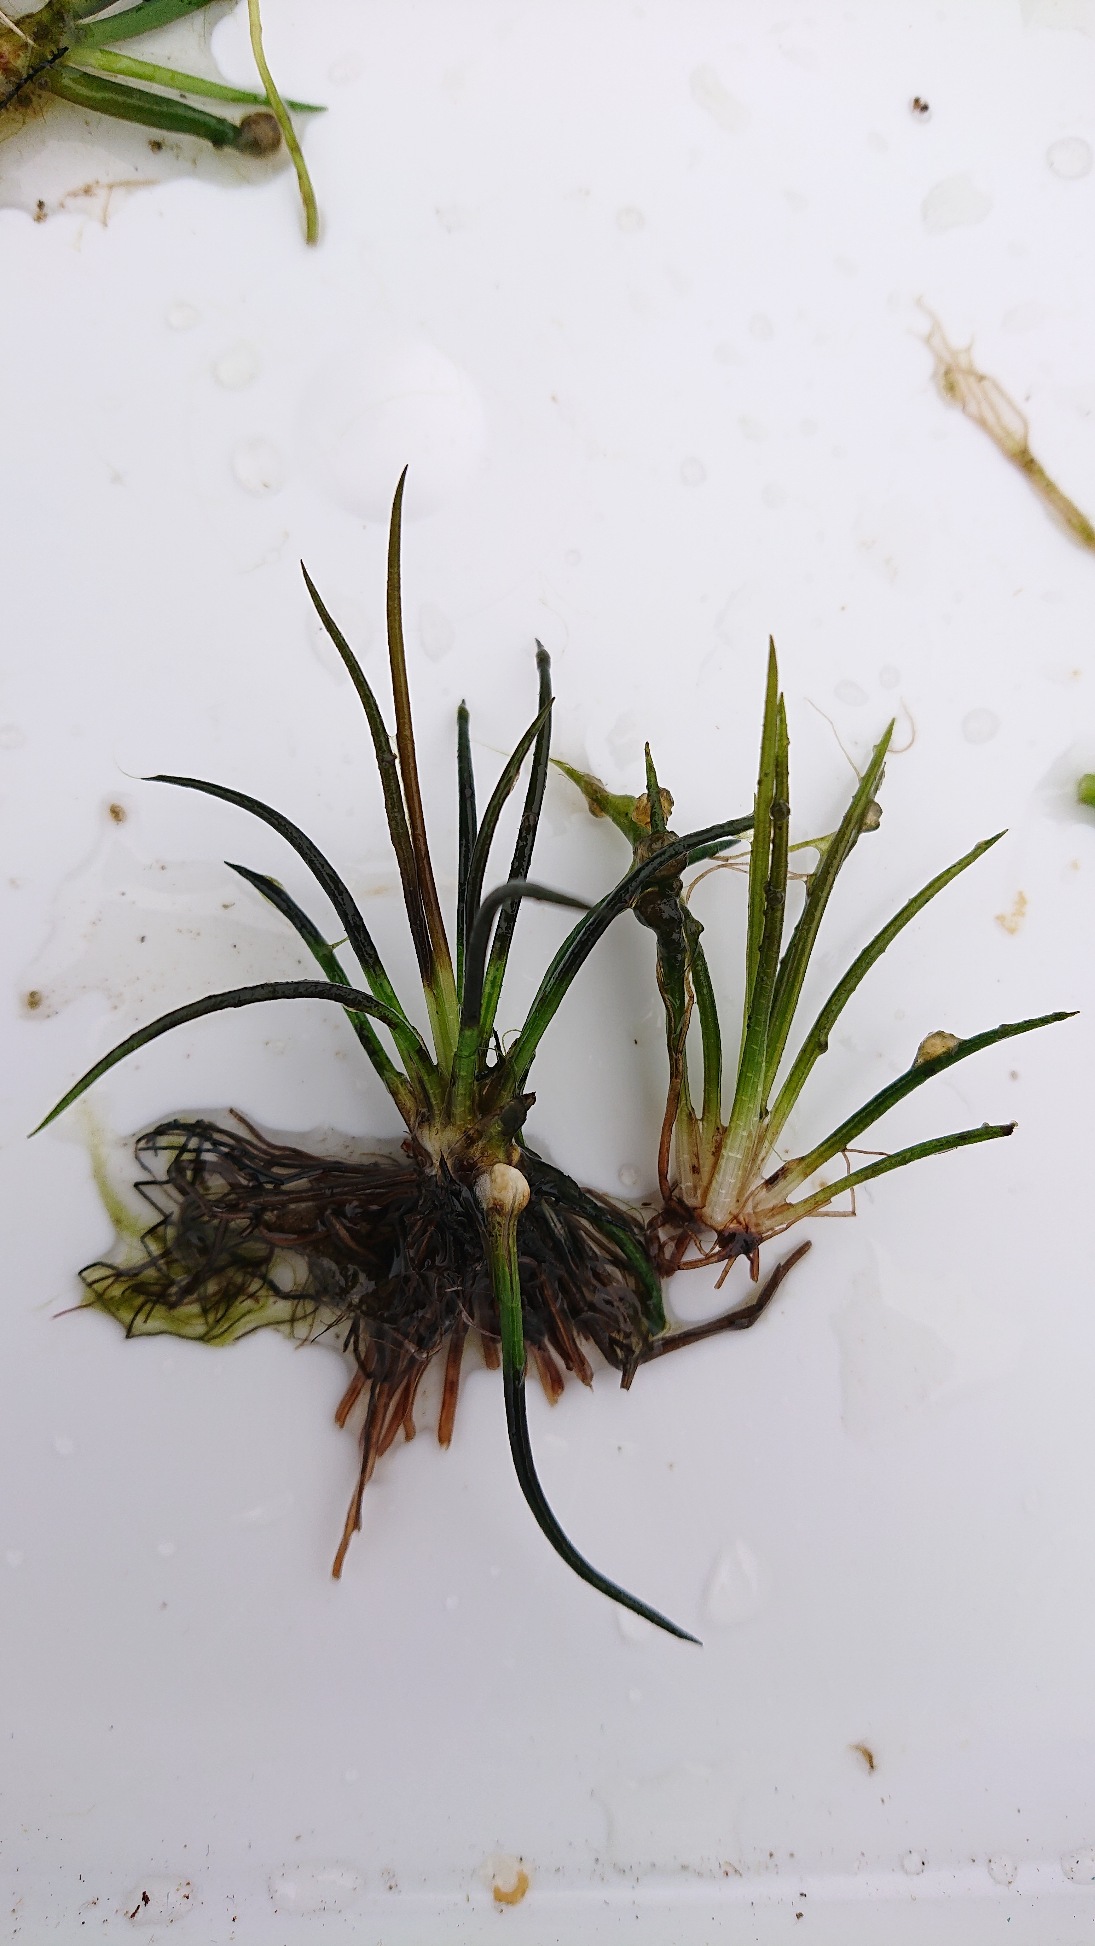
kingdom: Plantae
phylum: Tracheophyta
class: Lycopodiopsida
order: Isoetales
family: Isoetaceae
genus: Isoetes
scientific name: Isoetes lacustris
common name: Sortgrøn brasenføde
